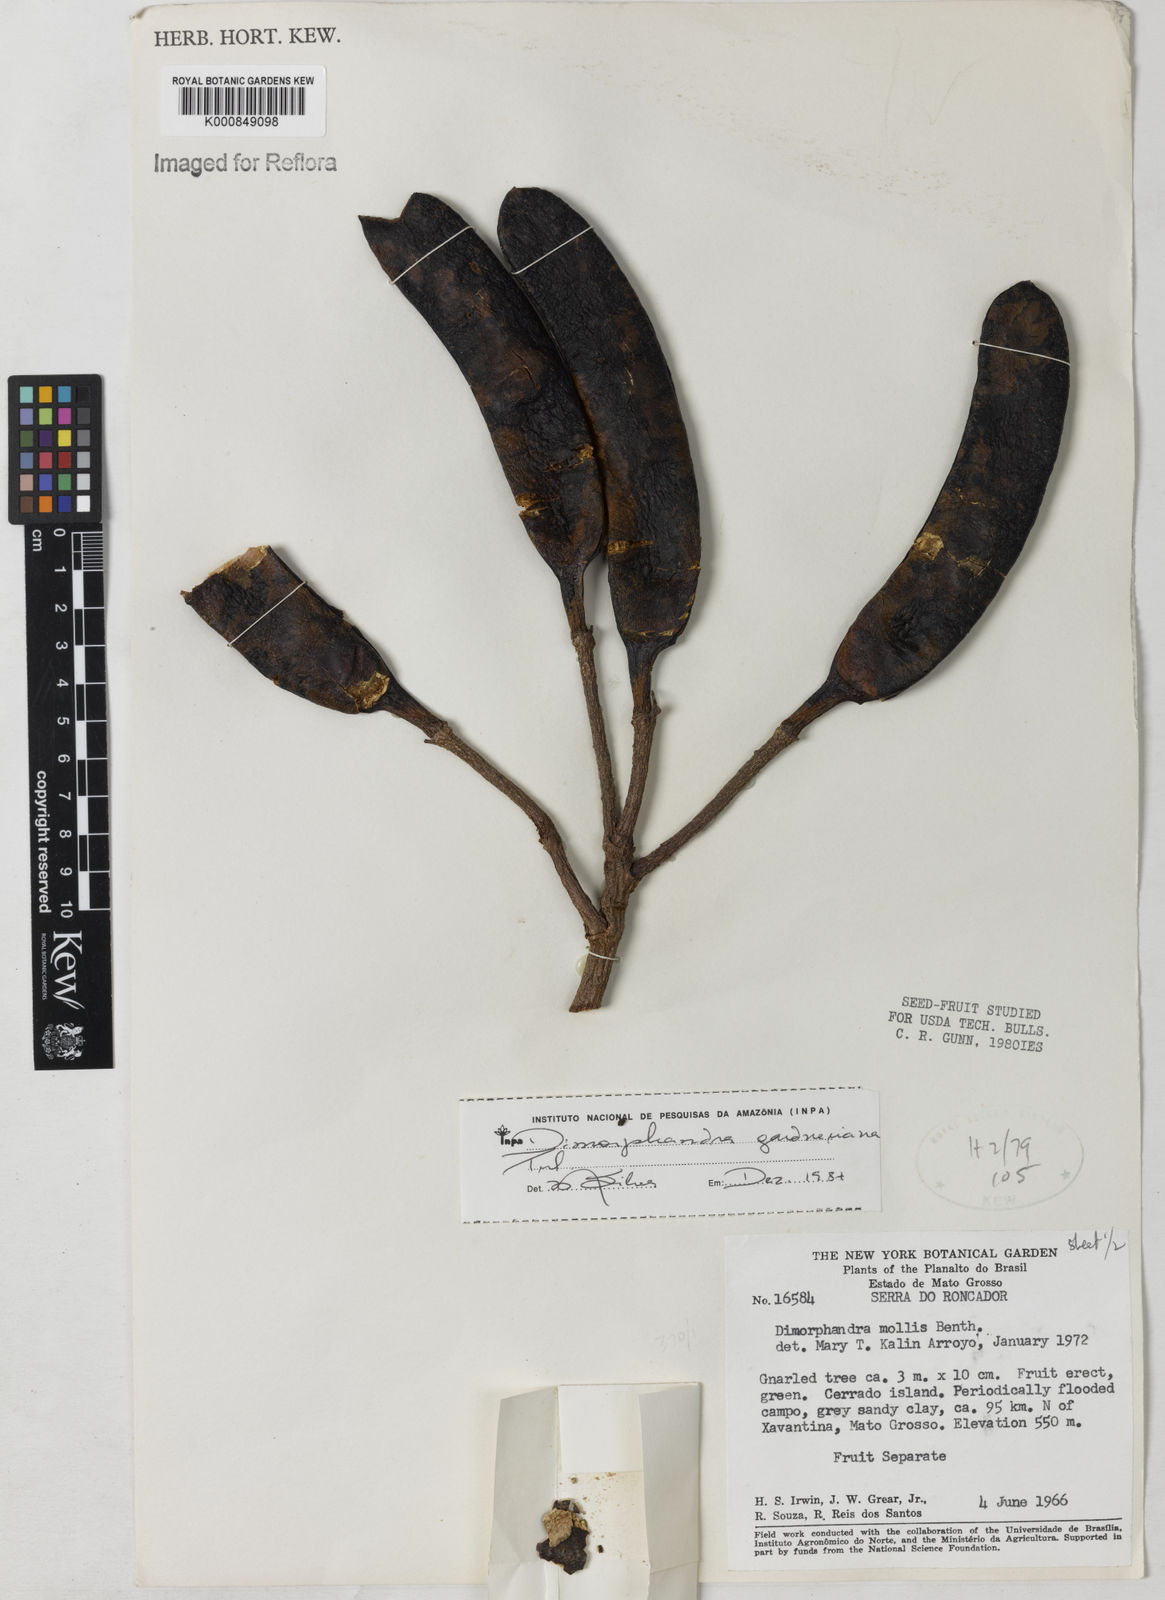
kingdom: Plantae
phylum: Tracheophyta
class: Magnoliopsida
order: Fabales
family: Fabaceae
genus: Dimorphandra
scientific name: Dimorphandra gardneriana
